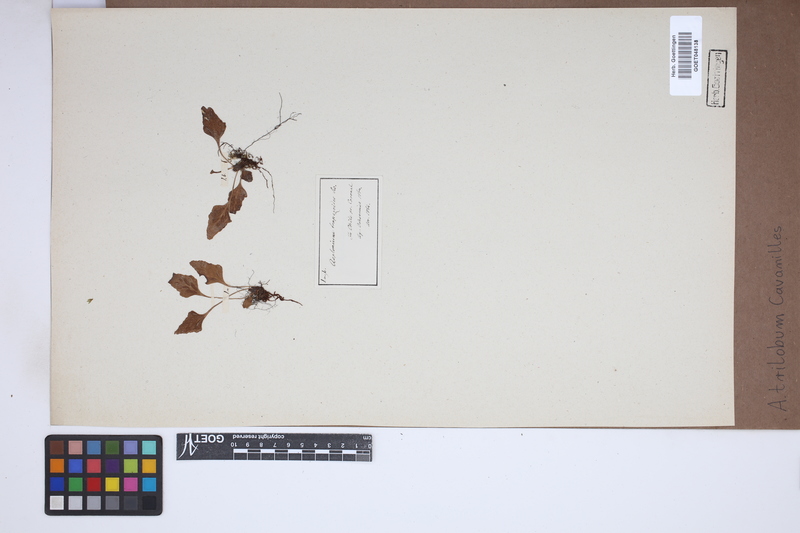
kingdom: Plantae
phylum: Tracheophyta
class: Polypodiopsida
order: Polypodiales
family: Aspleniaceae
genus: Asplenium
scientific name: Asplenium trilobum
